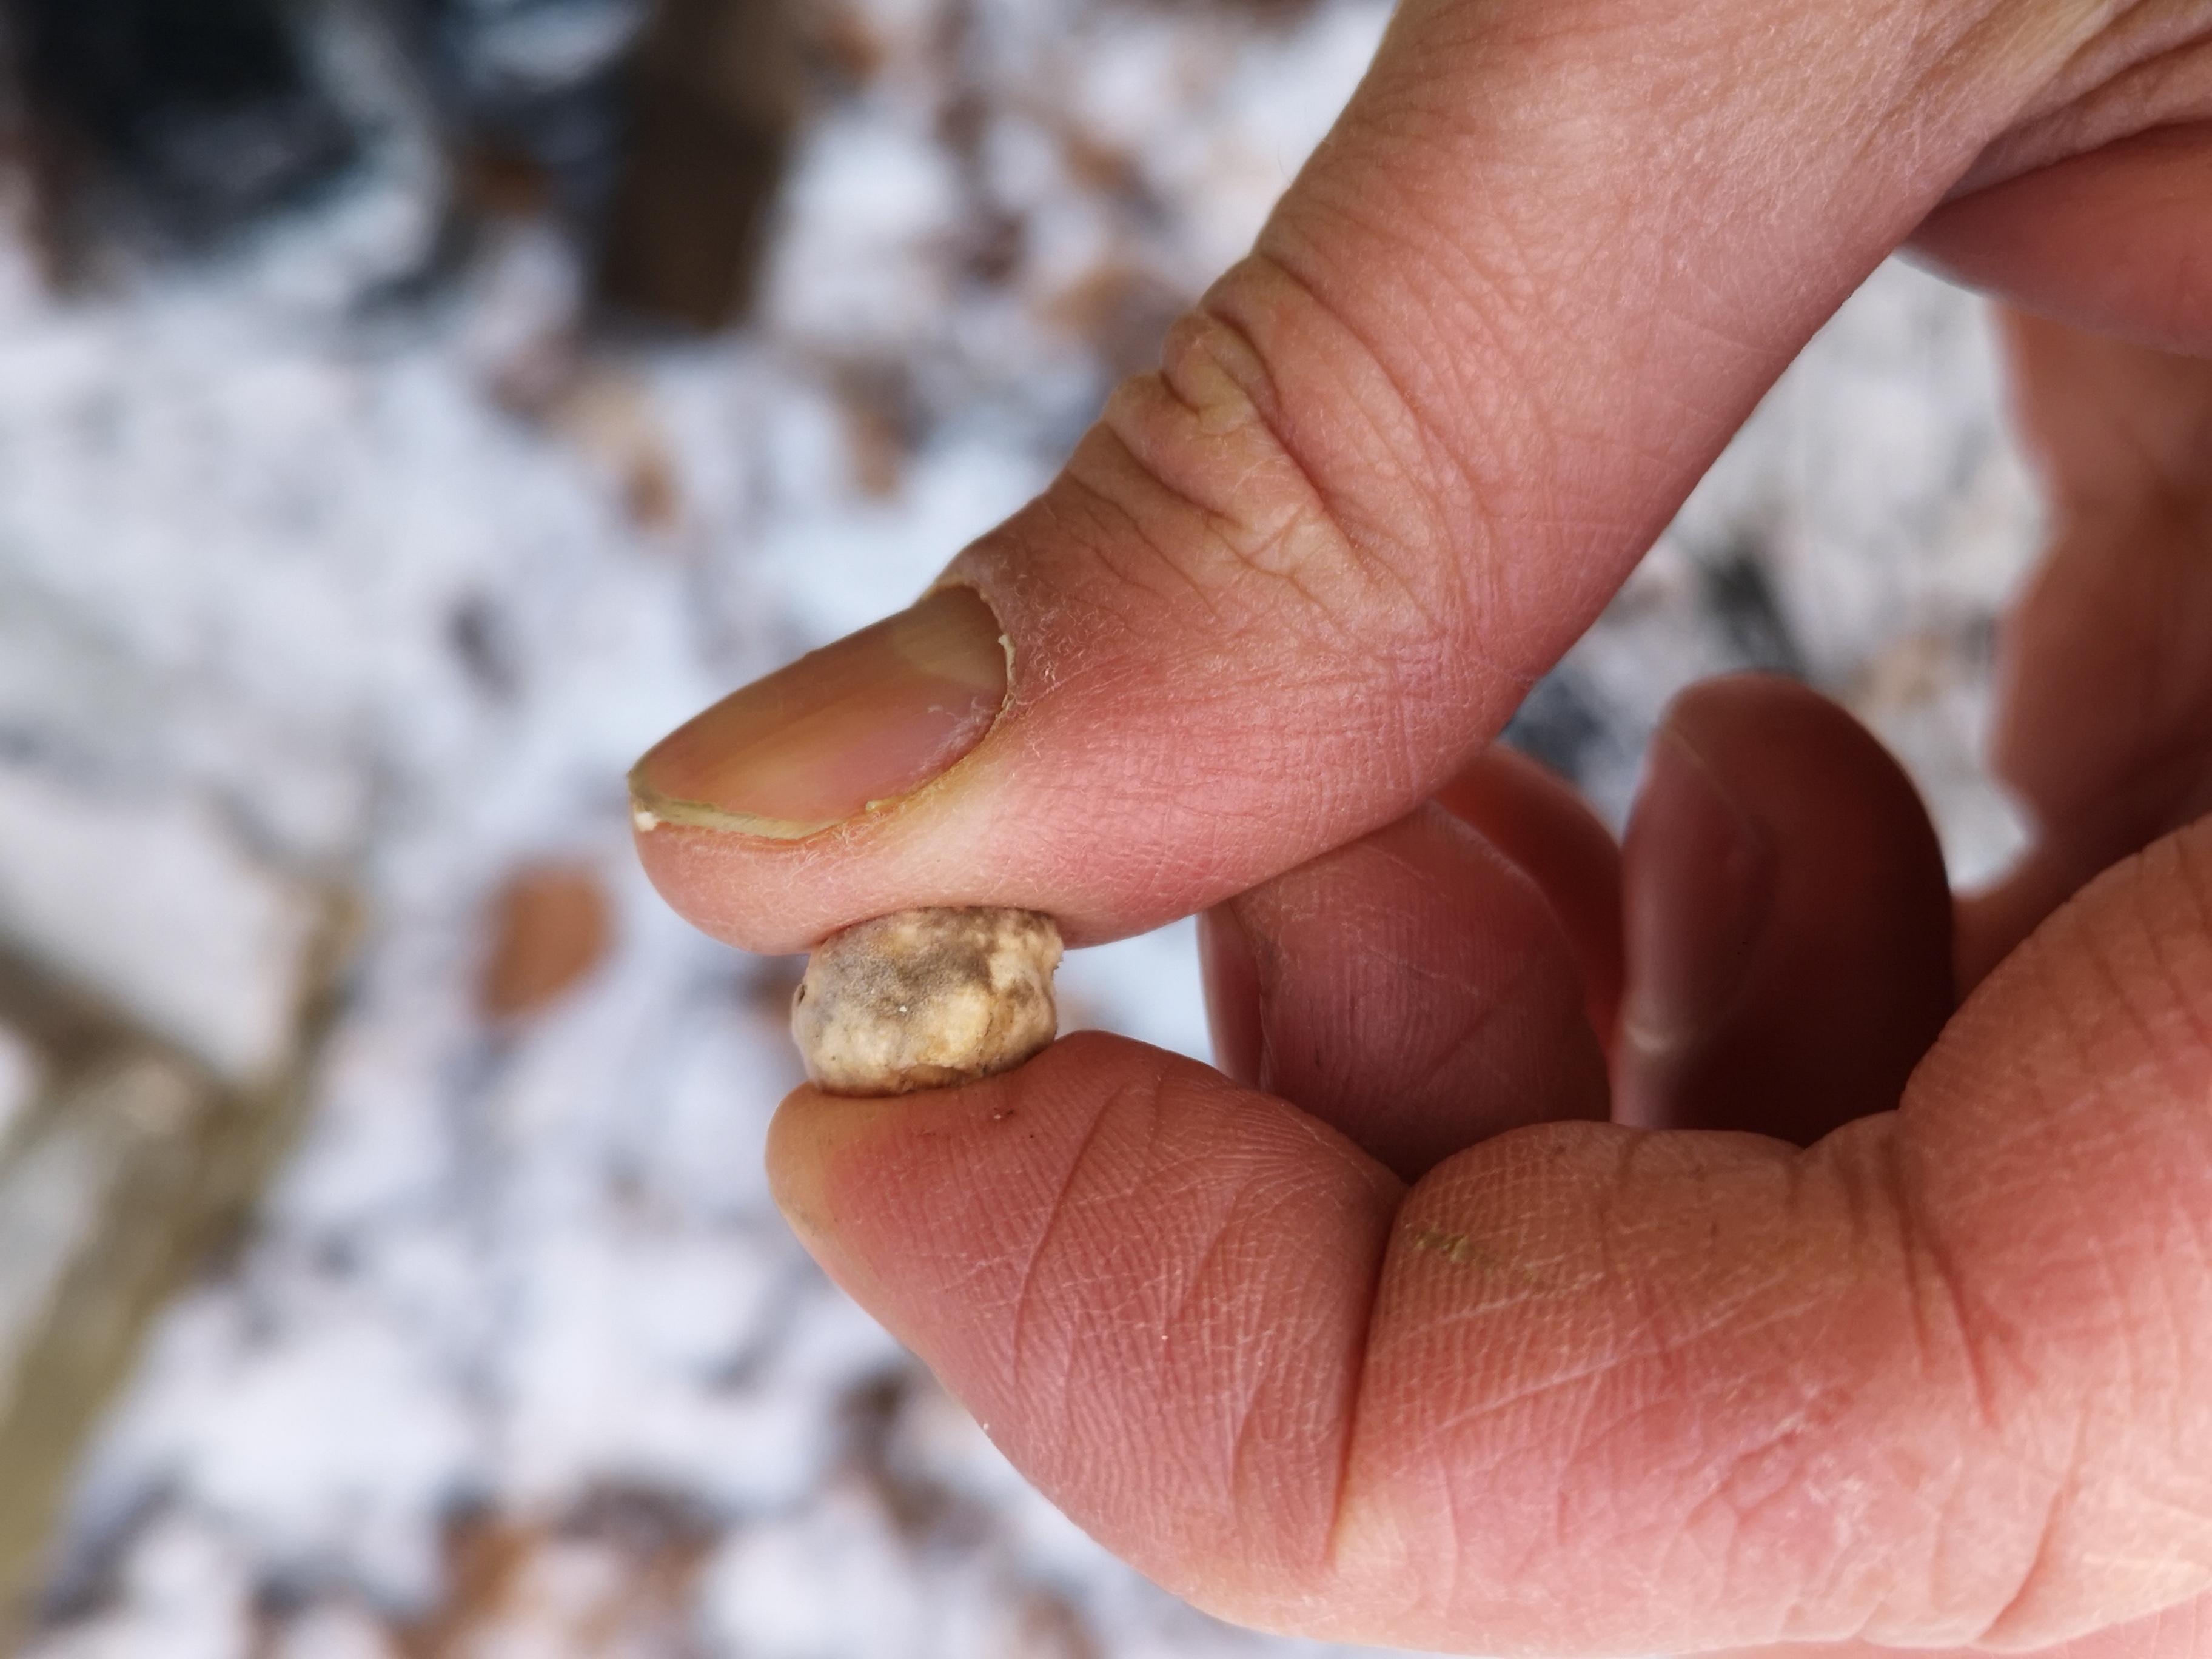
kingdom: Fungi
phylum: Basidiomycota
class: Agaricomycetes
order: Polyporales
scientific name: Polyporales
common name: poresvampordenen
